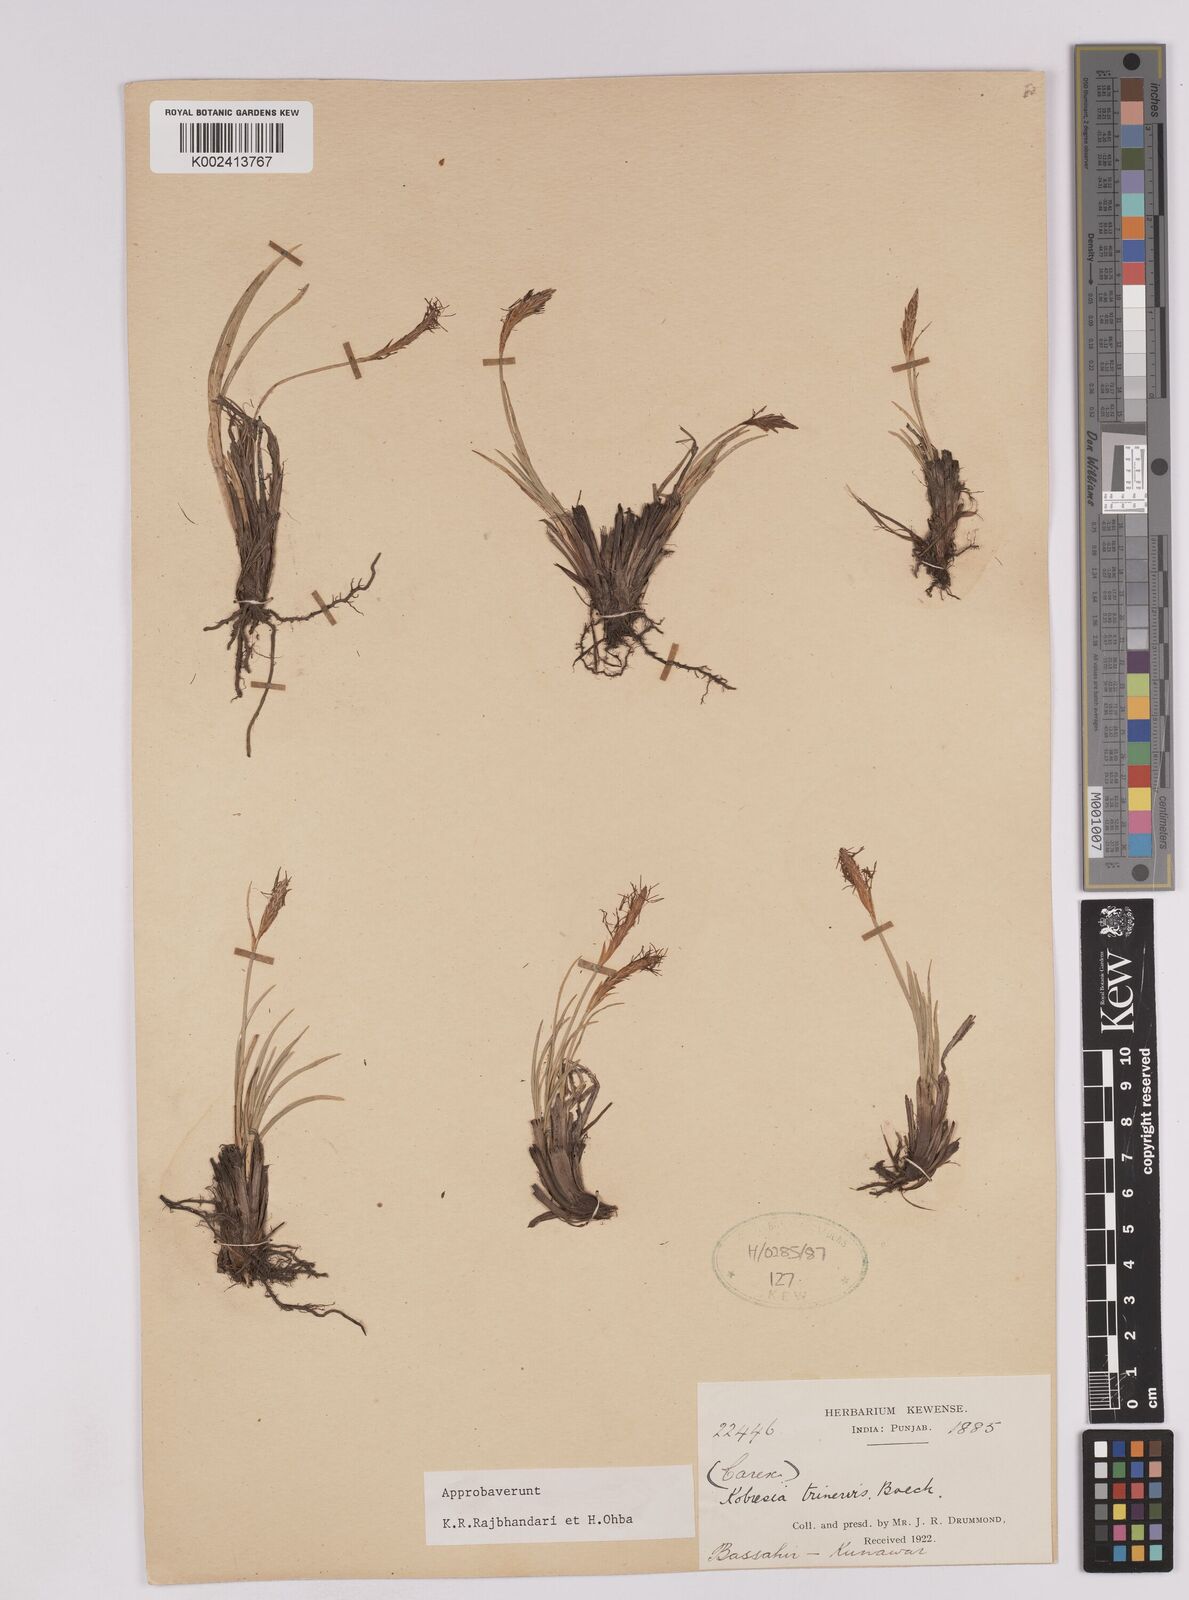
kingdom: Plantae
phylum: Tracheophyta
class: Liliopsida
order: Poales
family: Cyperaceae
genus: Carex
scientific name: Carex esenbeckii
